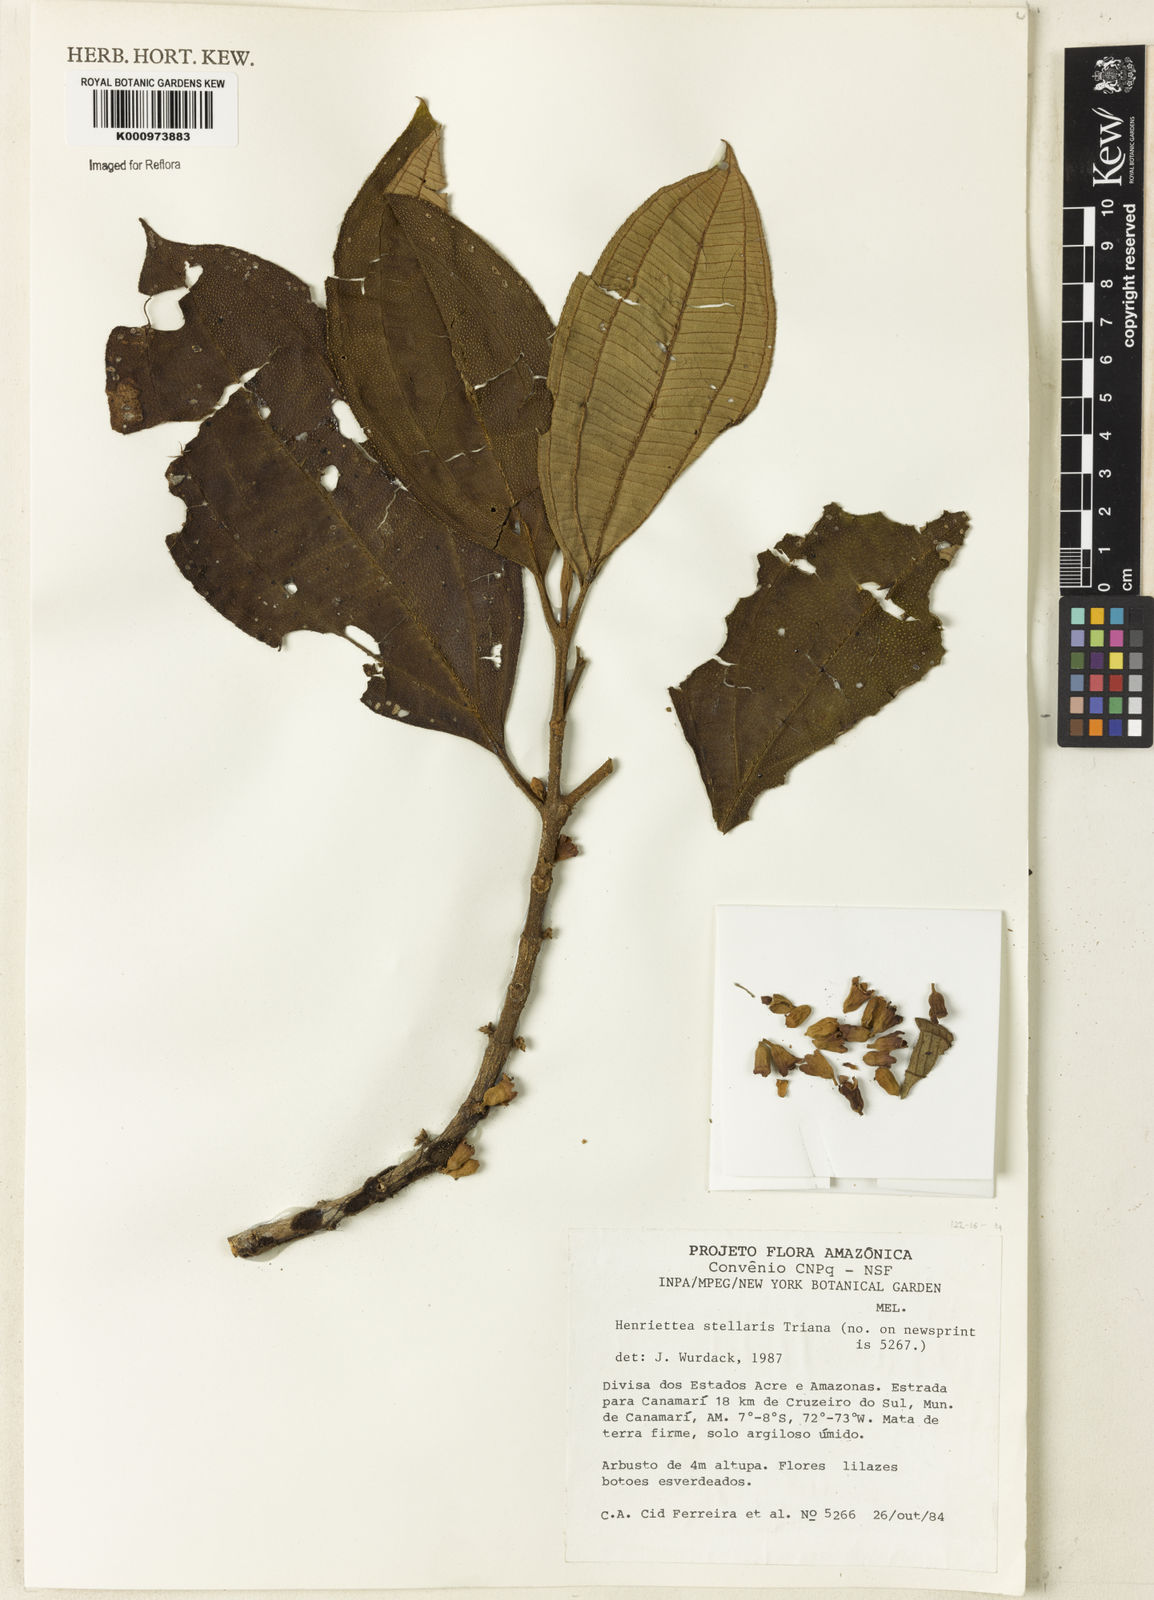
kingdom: Plantae
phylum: Tracheophyta
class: Magnoliopsida
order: Myrtales
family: Melastomataceae
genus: Henriettea
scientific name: Henriettea stellaris
